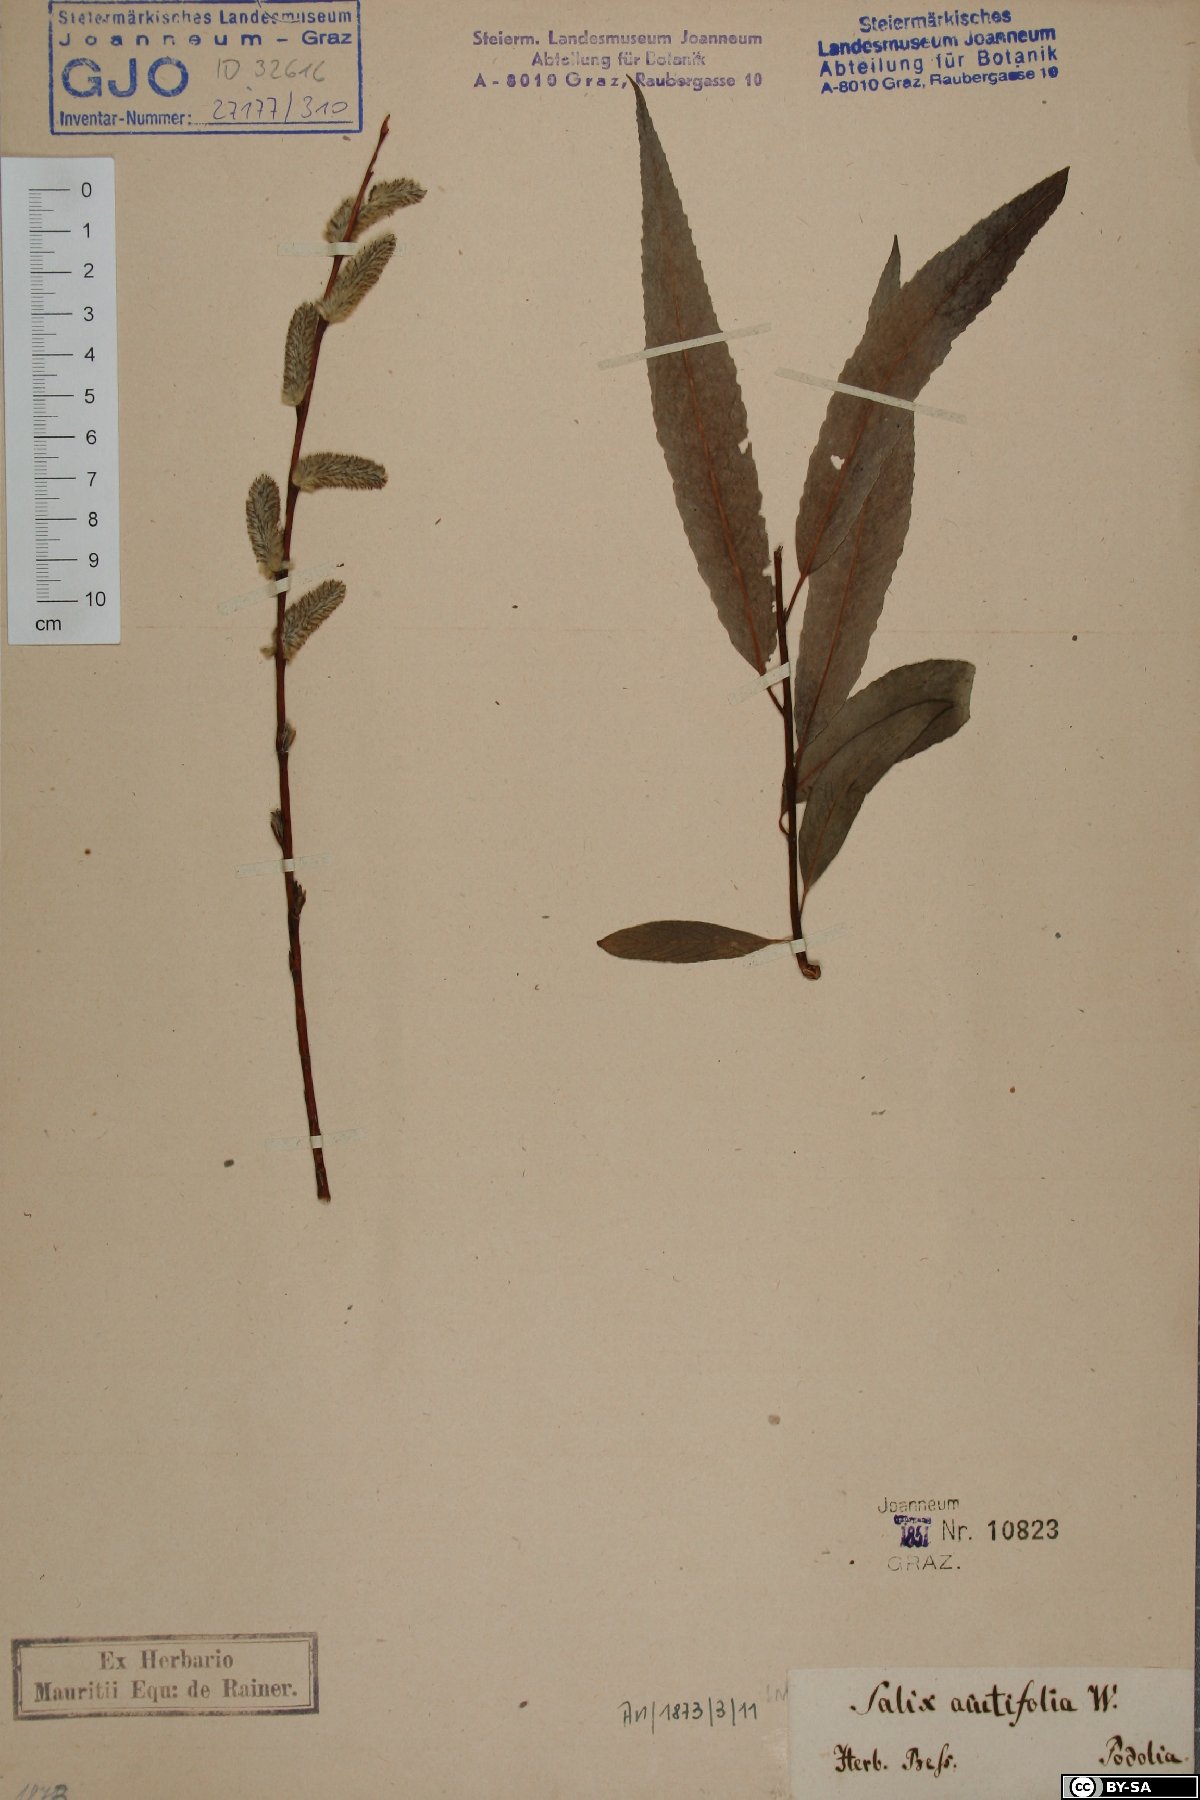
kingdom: Plantae
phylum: Tracheophyta
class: Magnoliopsida
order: Malpighiales
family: Salicaceae
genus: Salix
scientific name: Salix acutifolia
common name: Siberian violet-willow
